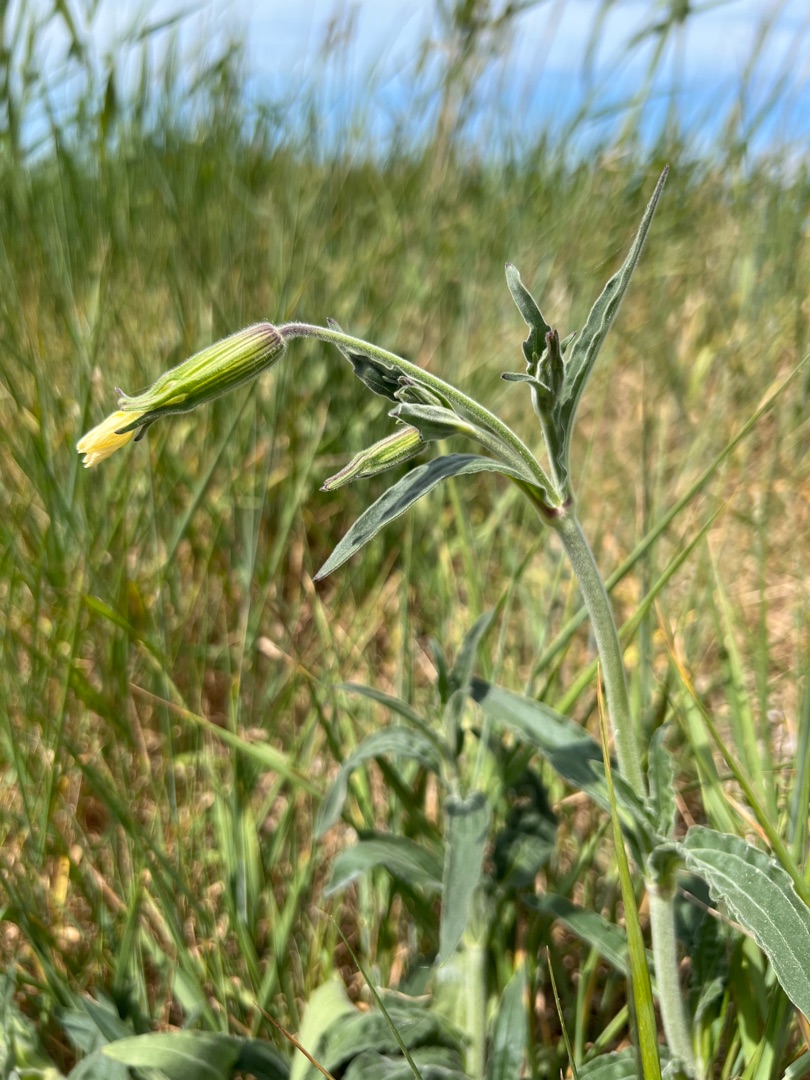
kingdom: Plantae
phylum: Tracheophyta
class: Magnoliopsida
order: Caryophyllales
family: Caryophyllaceae
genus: Silene
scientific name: Silene latifolia
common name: Aftenpragtstjerne
